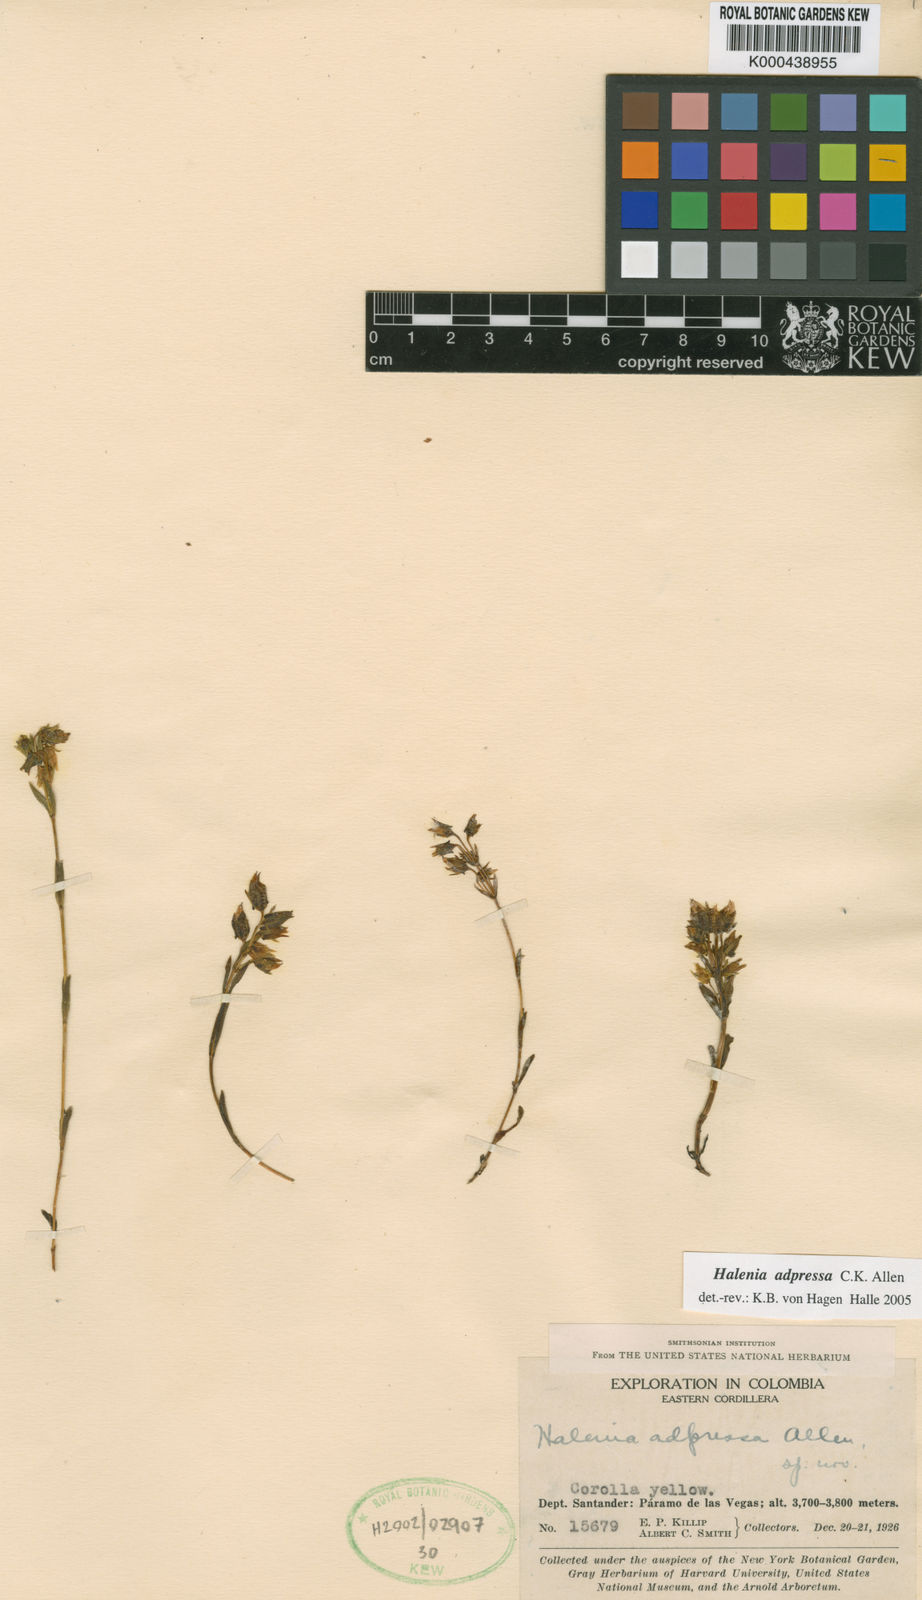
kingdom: Plantae
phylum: Tracheophyta
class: Magnoliopsida
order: Gentianales
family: Gentianaceae
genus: Halenia
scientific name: Halenia adpressa
